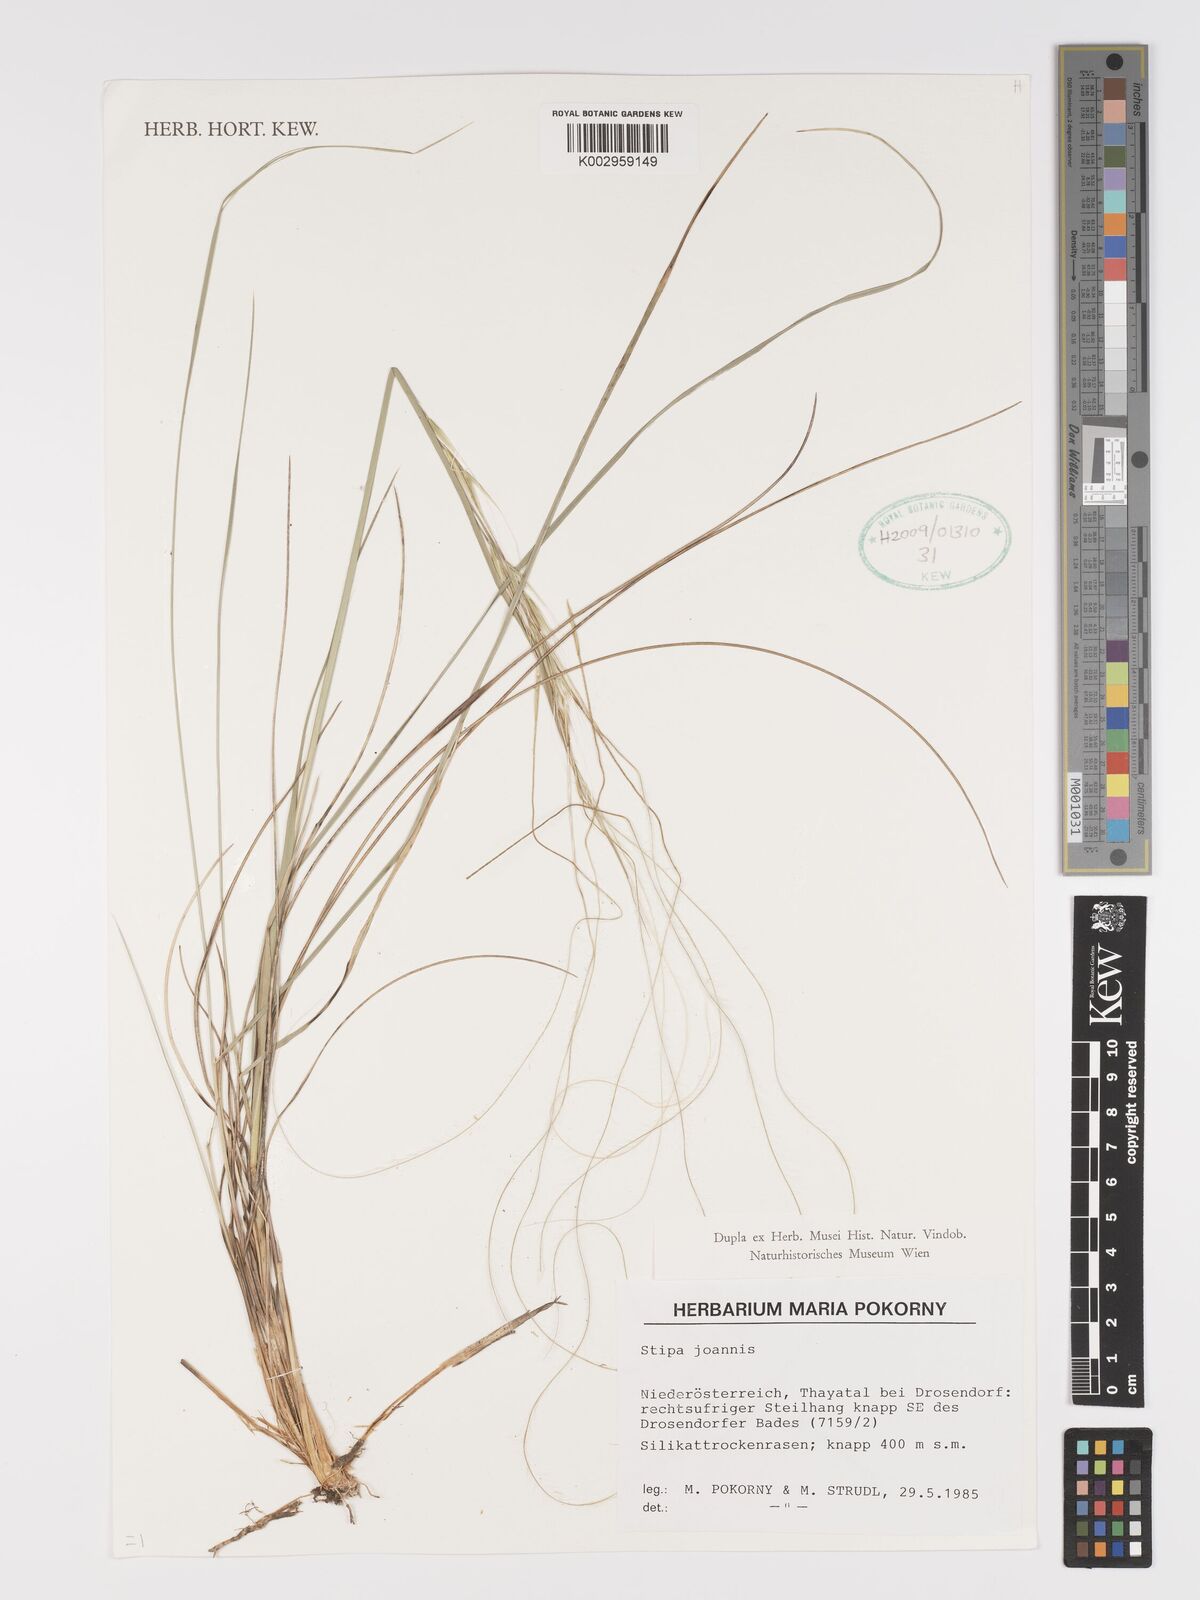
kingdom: Plantae
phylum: Tracheophyta
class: Liliopsida
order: Poales
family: Poaceae
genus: Stipa
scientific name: Stipa pennata
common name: European feather grass
